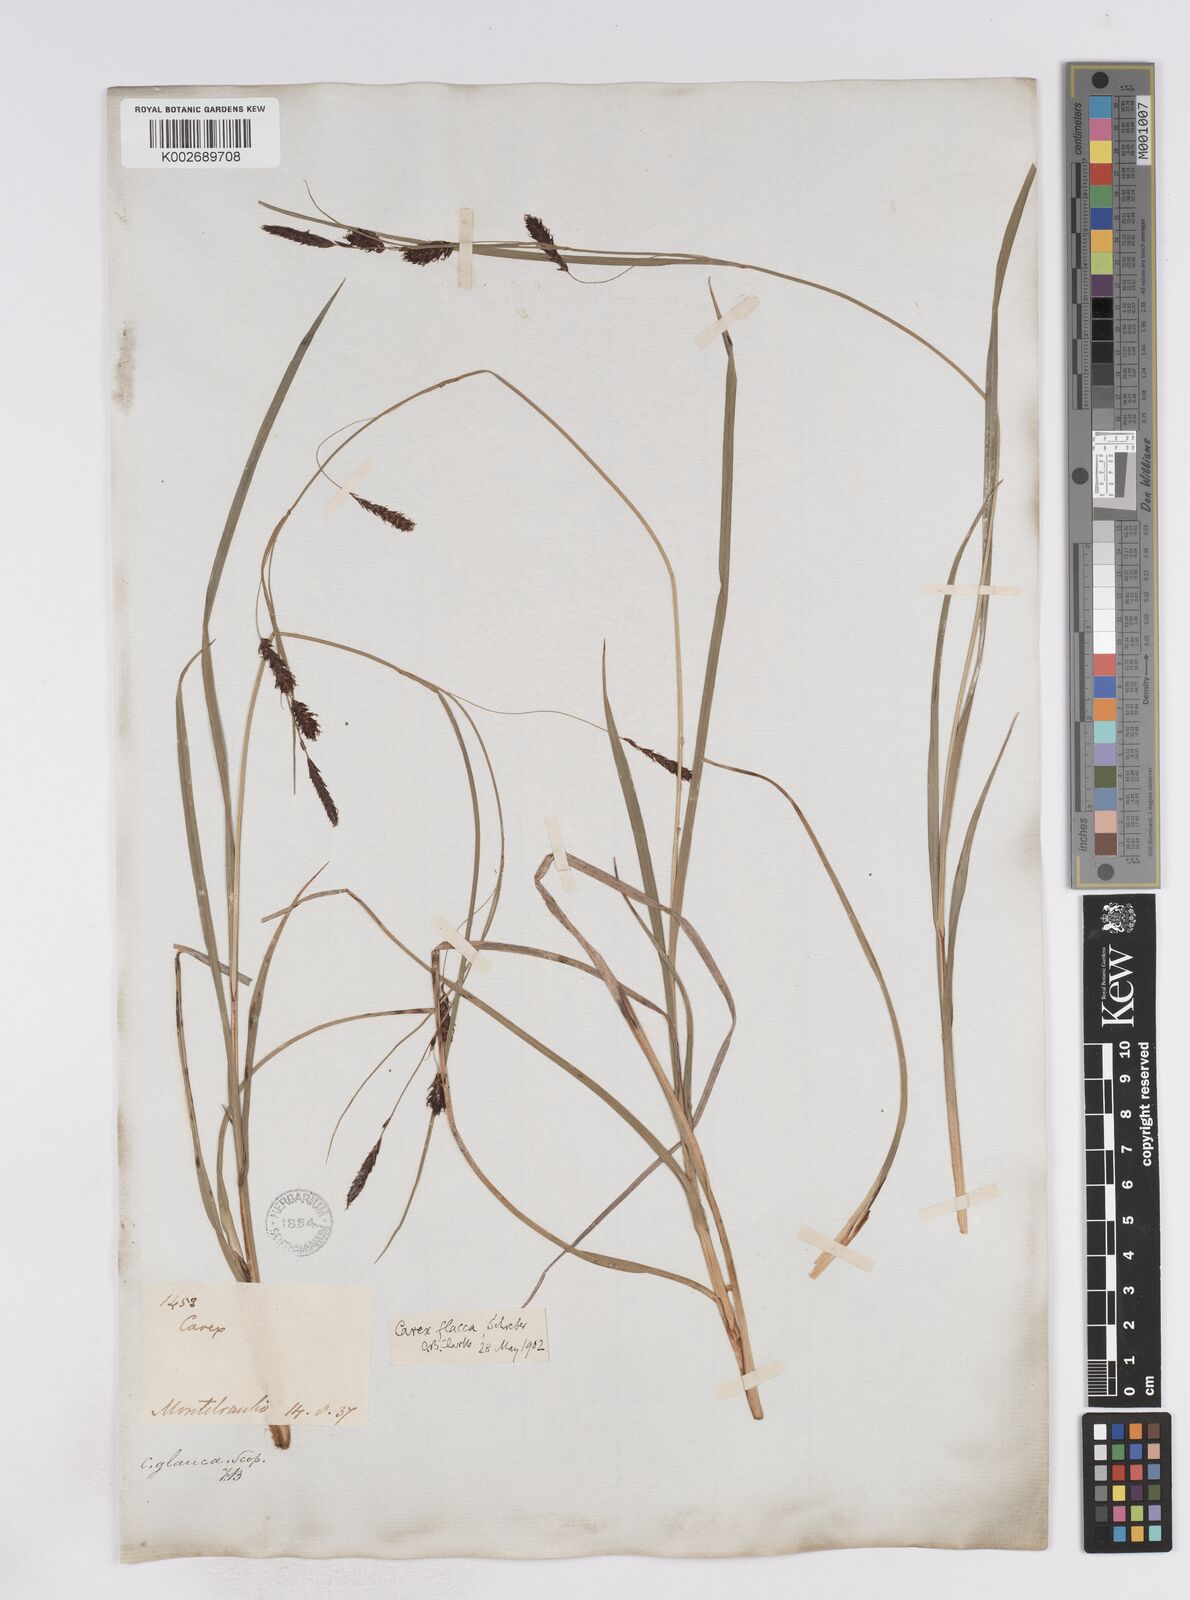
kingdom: Plantae
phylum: Tracheophyta
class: Liliopsida
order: Poales
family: Cyperaceae
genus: Carex
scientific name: Carex flacca
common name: Glaucous sedge
